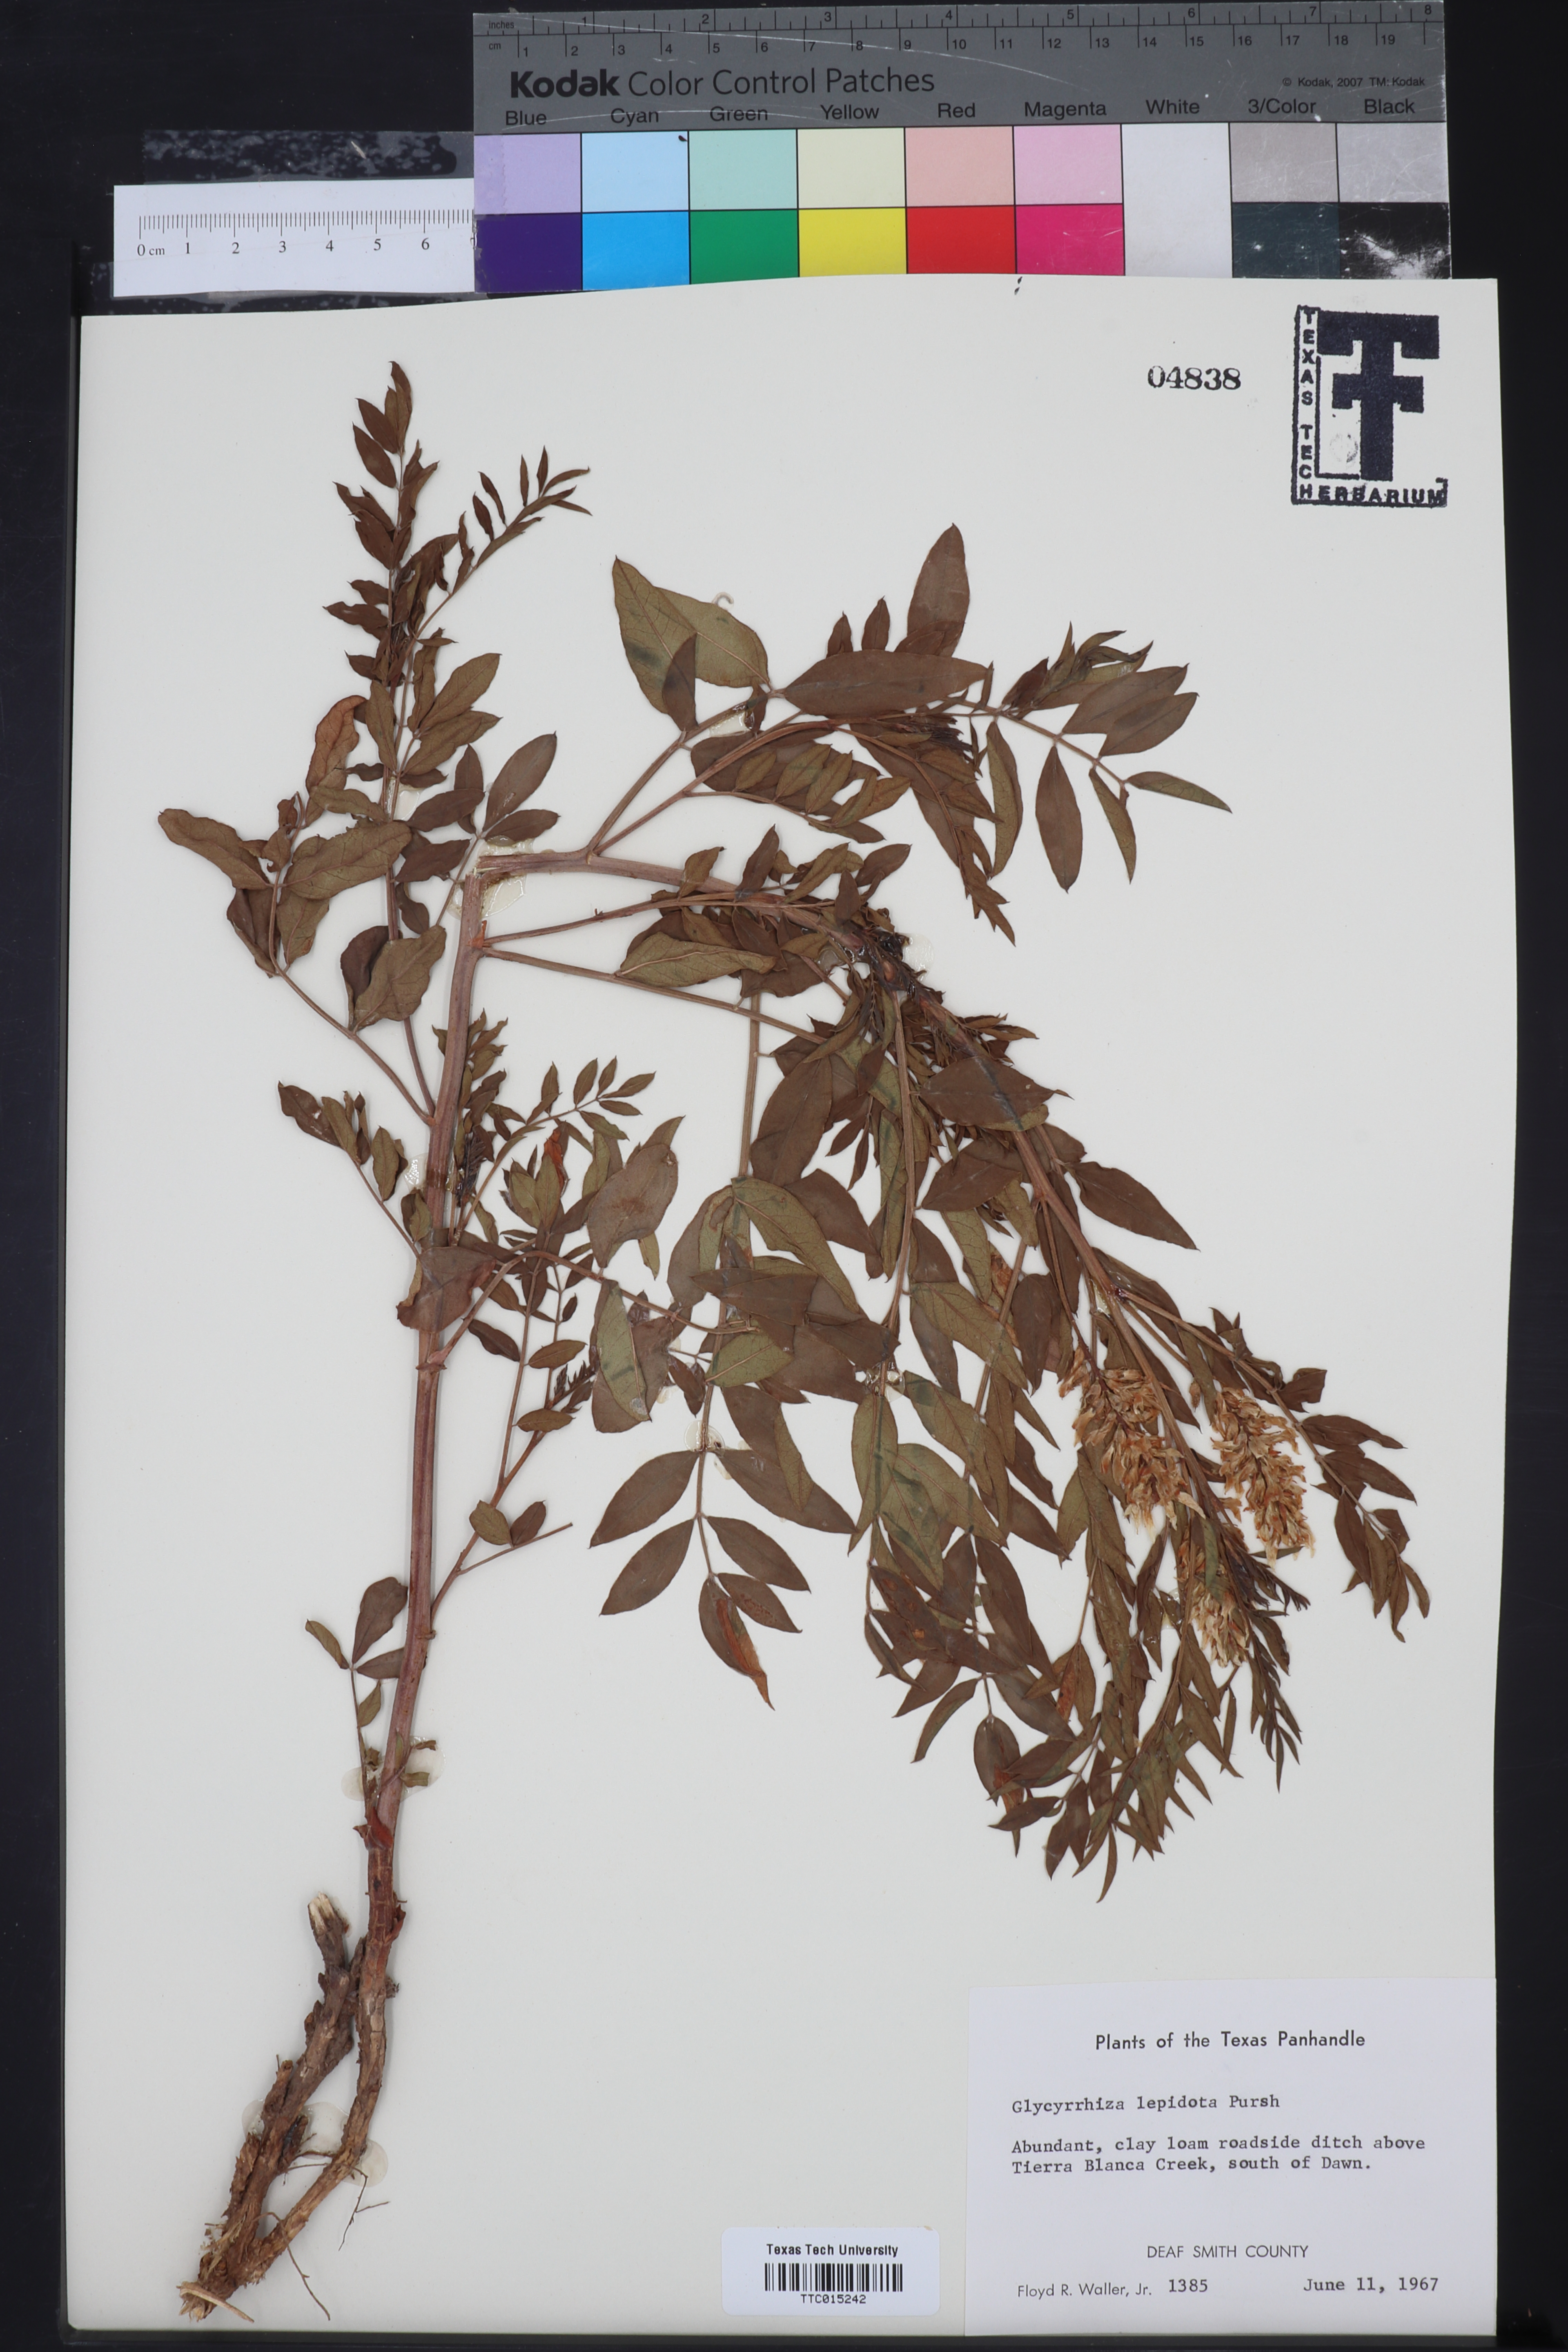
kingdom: Plantae
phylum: Tracheophyta
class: Magnoliopsida
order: Fabales
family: Fabaceae
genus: Glycyrrhiza
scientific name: Glycyrrhiza lepidota
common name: American liquorice
